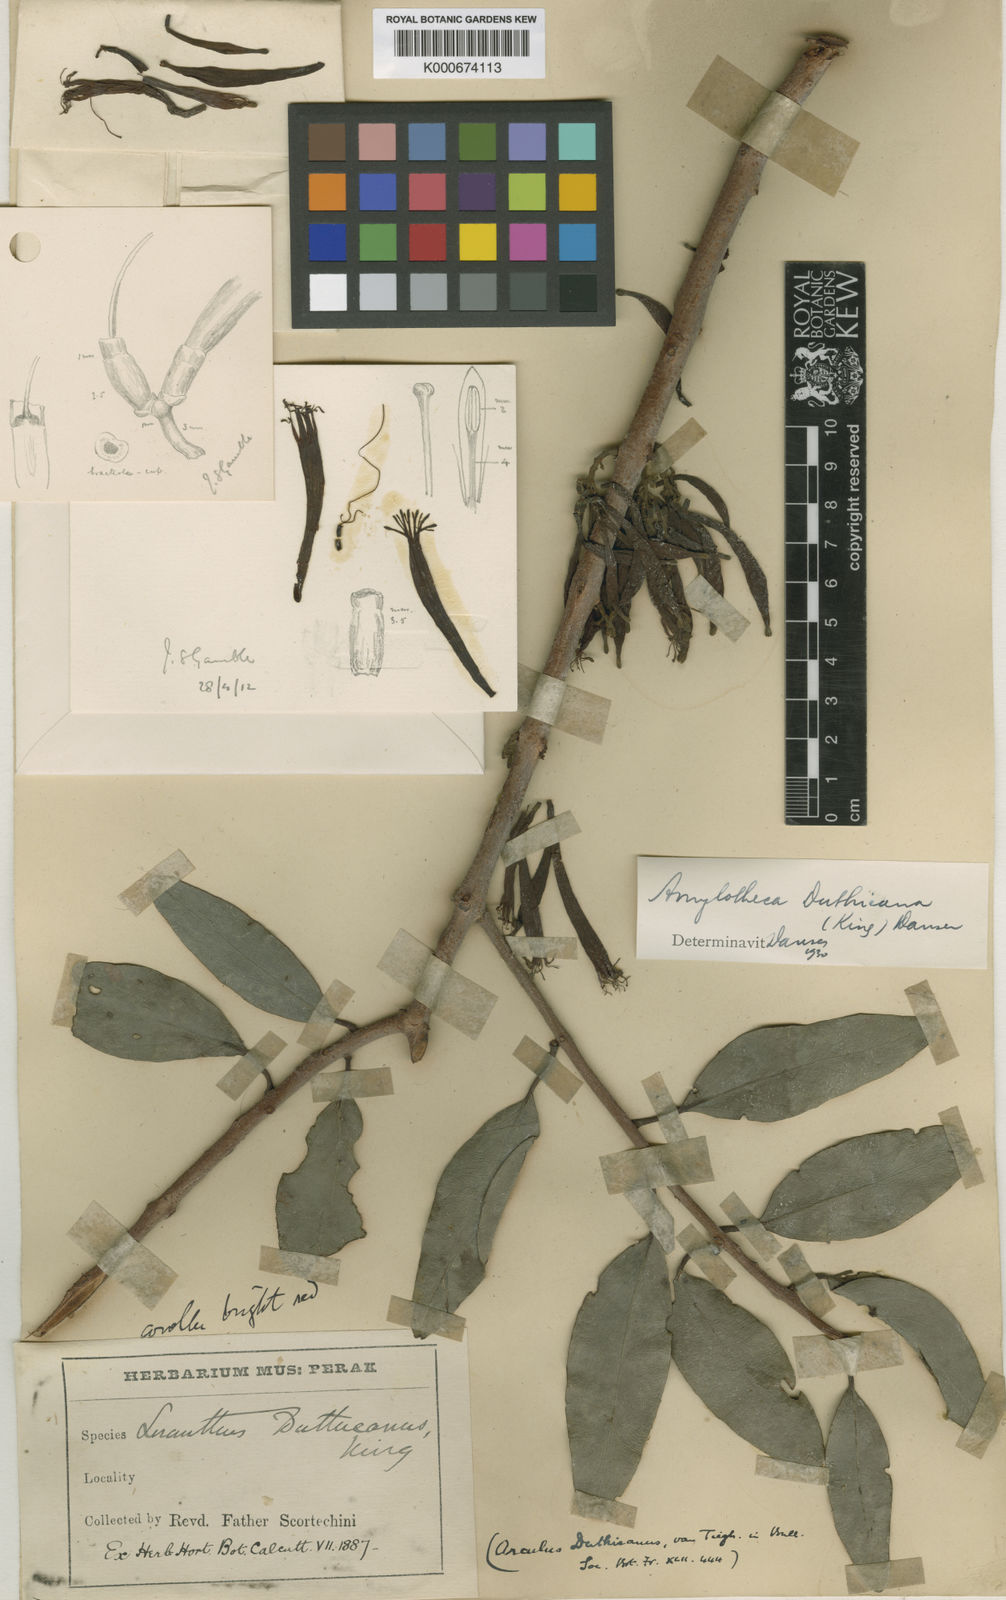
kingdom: Plantae
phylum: Tracheophyta
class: Magnoliopsida
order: Santalales
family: Loranthaceae
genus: Amylotheca
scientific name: Amylotheca duthieana
